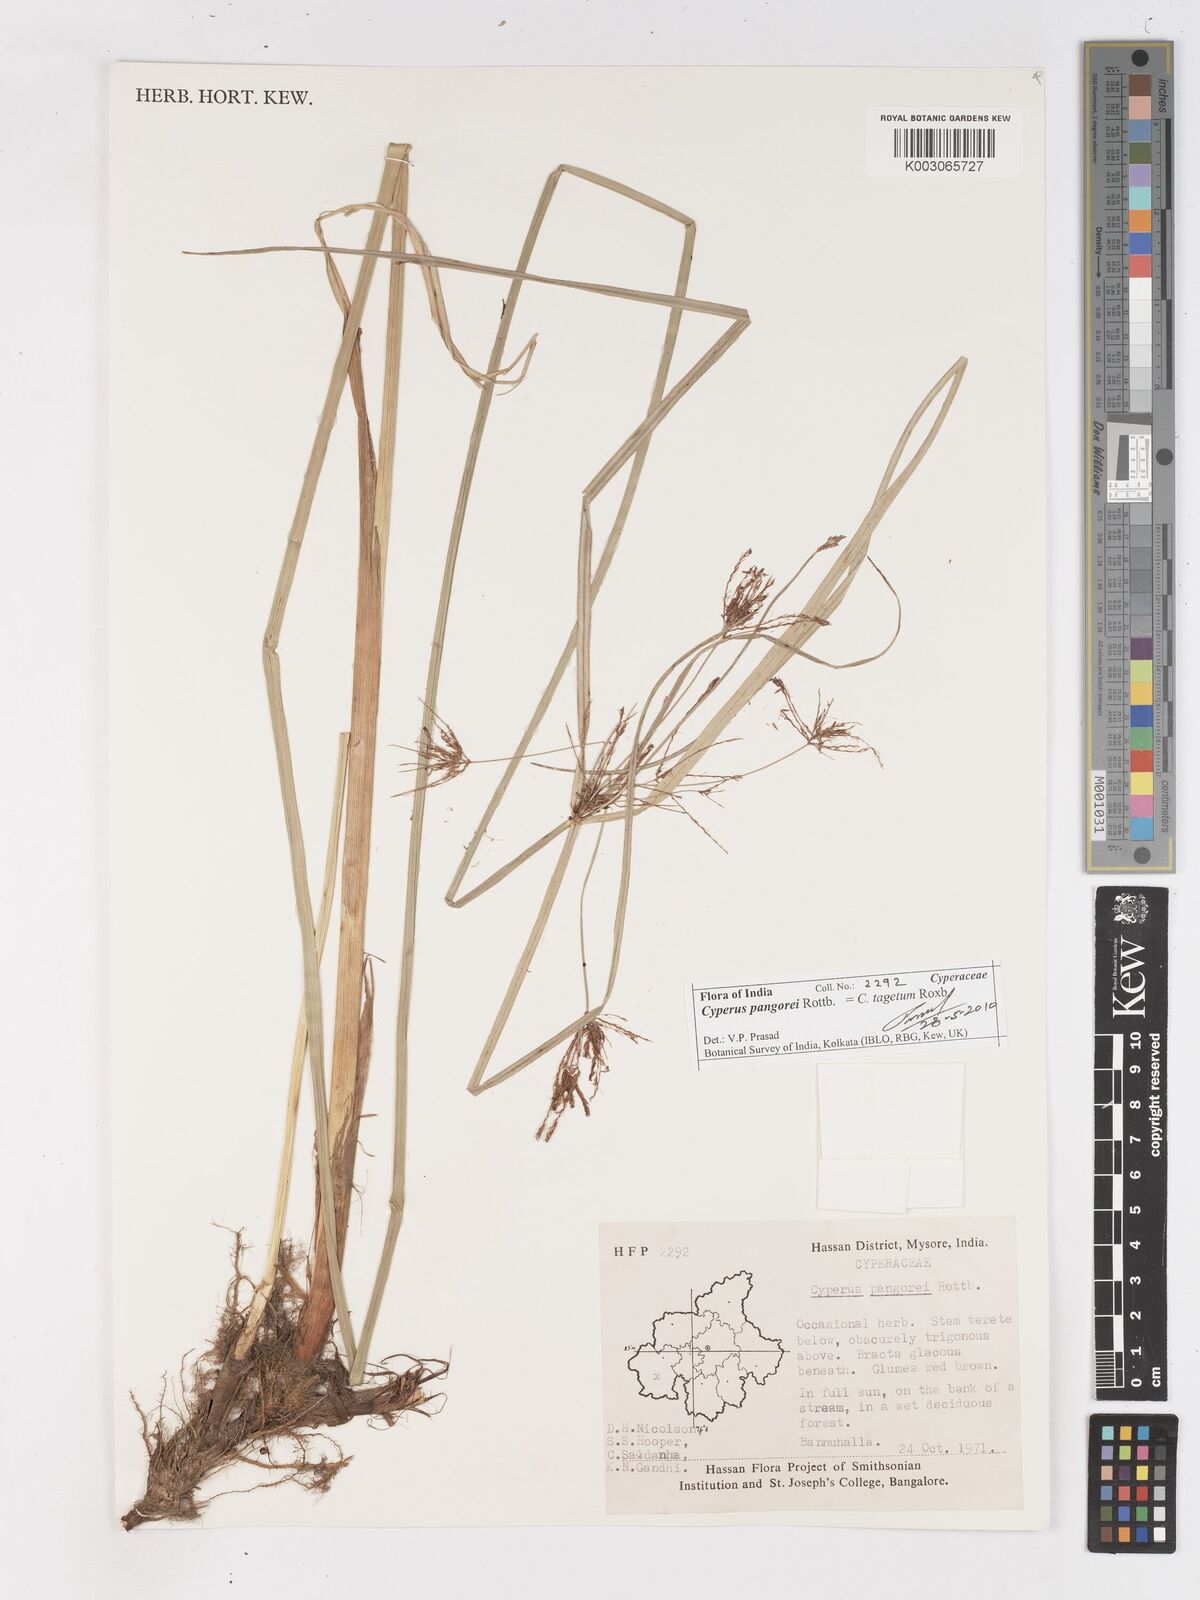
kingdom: Plantae
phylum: Tracheophyta
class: Liliopsida
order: Poales
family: Cyperaceae
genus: Cyperus
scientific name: Cyperus pangorei
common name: Mat sedge
